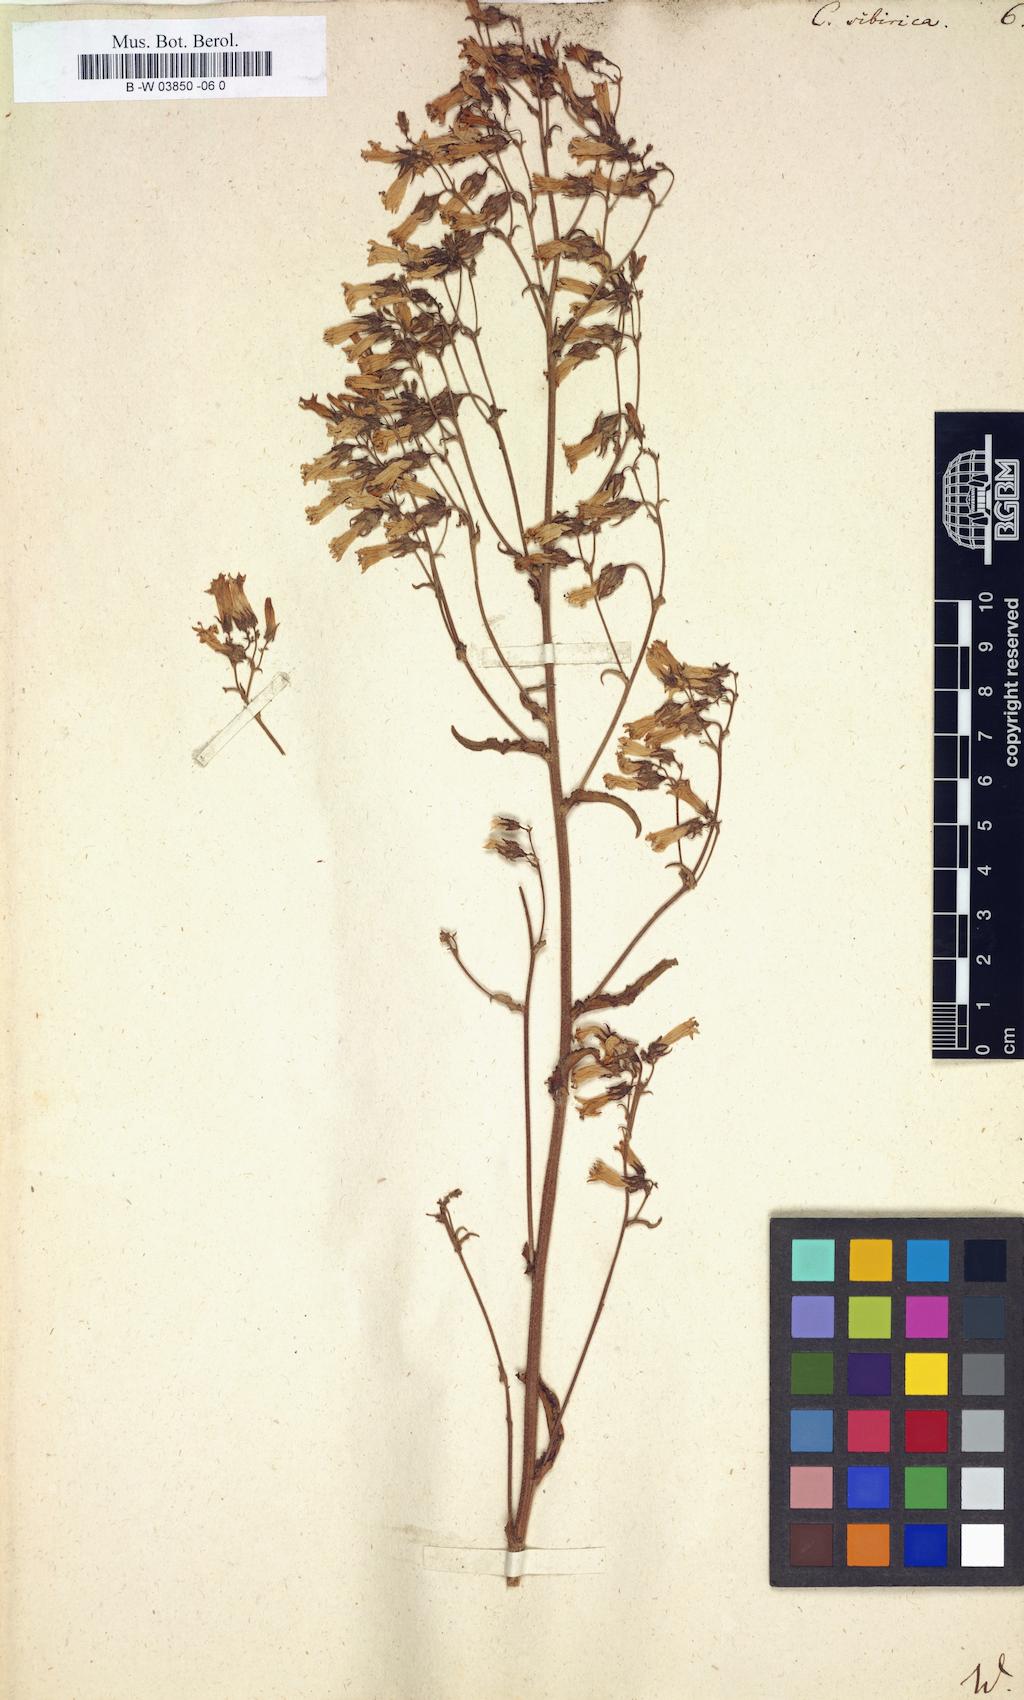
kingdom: Plantae
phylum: Tracheophyta
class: Magnoliopsida
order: Asterales
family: Campanulaceae
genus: Campanula
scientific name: Campanula sibirica
